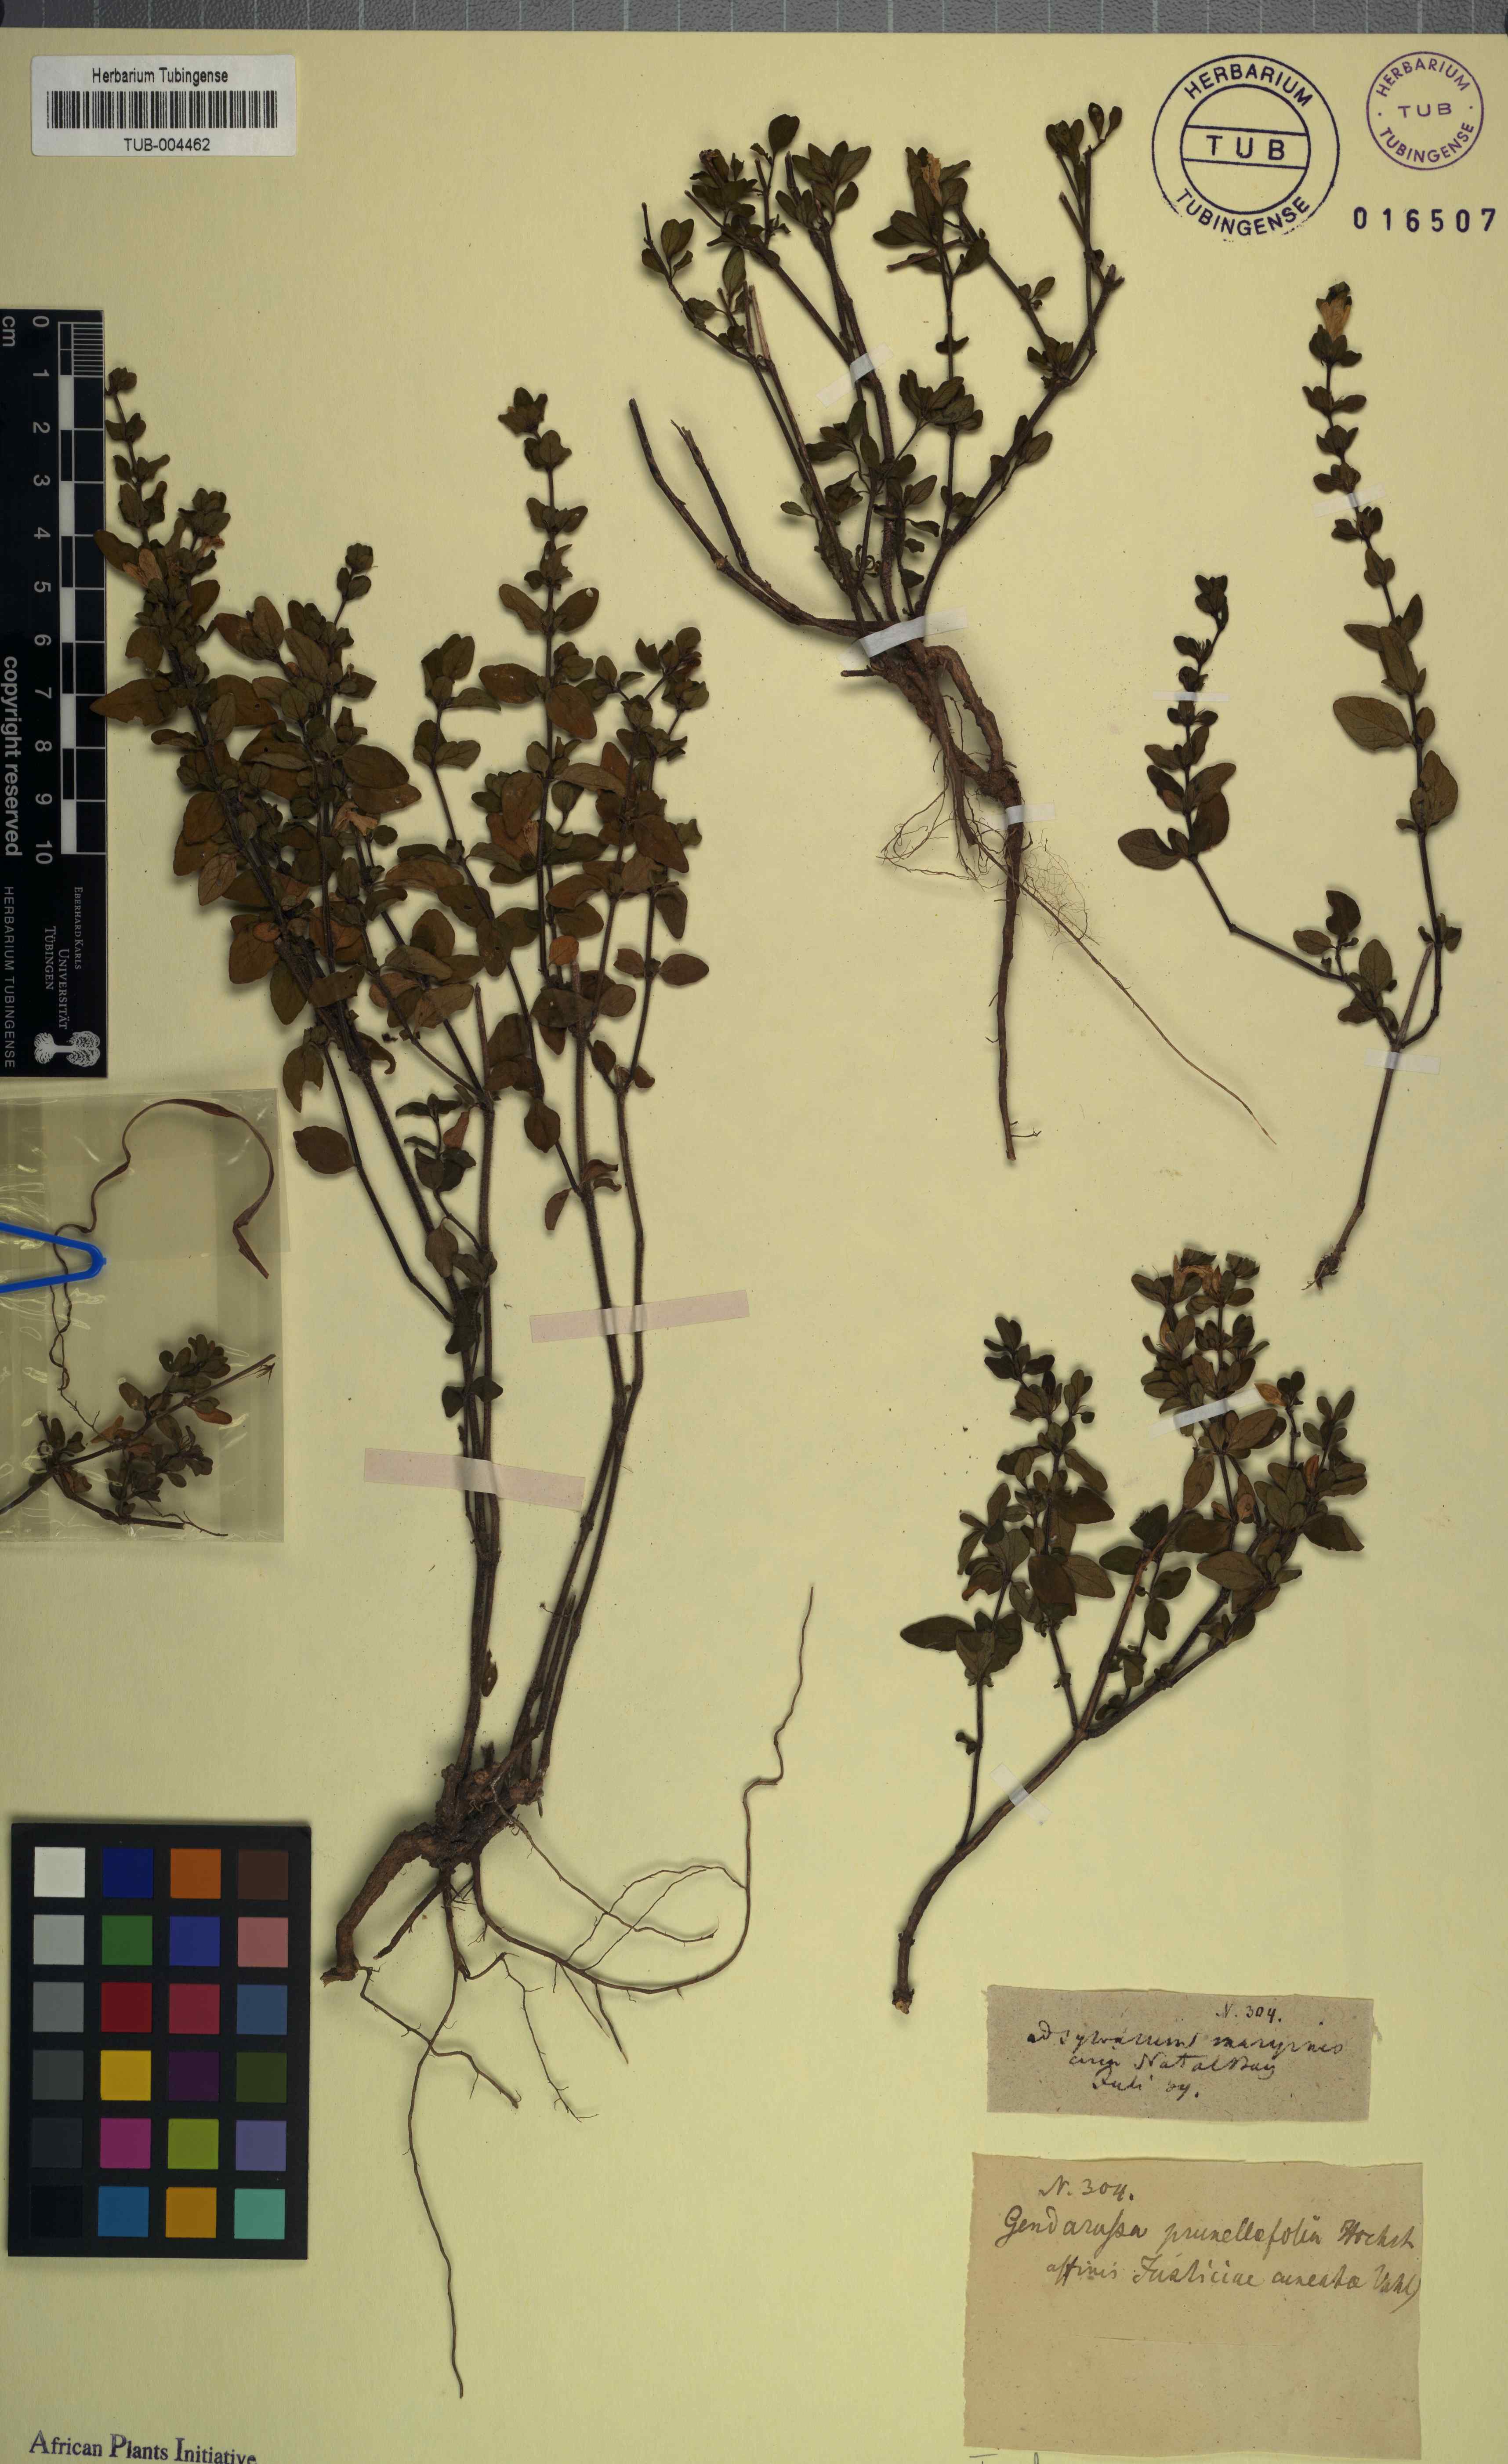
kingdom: Plantae
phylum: Tracheophyta
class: Magnoliopsida
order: Lamiales
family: Acanthaceae
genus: Justicia
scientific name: Justicia protracta
